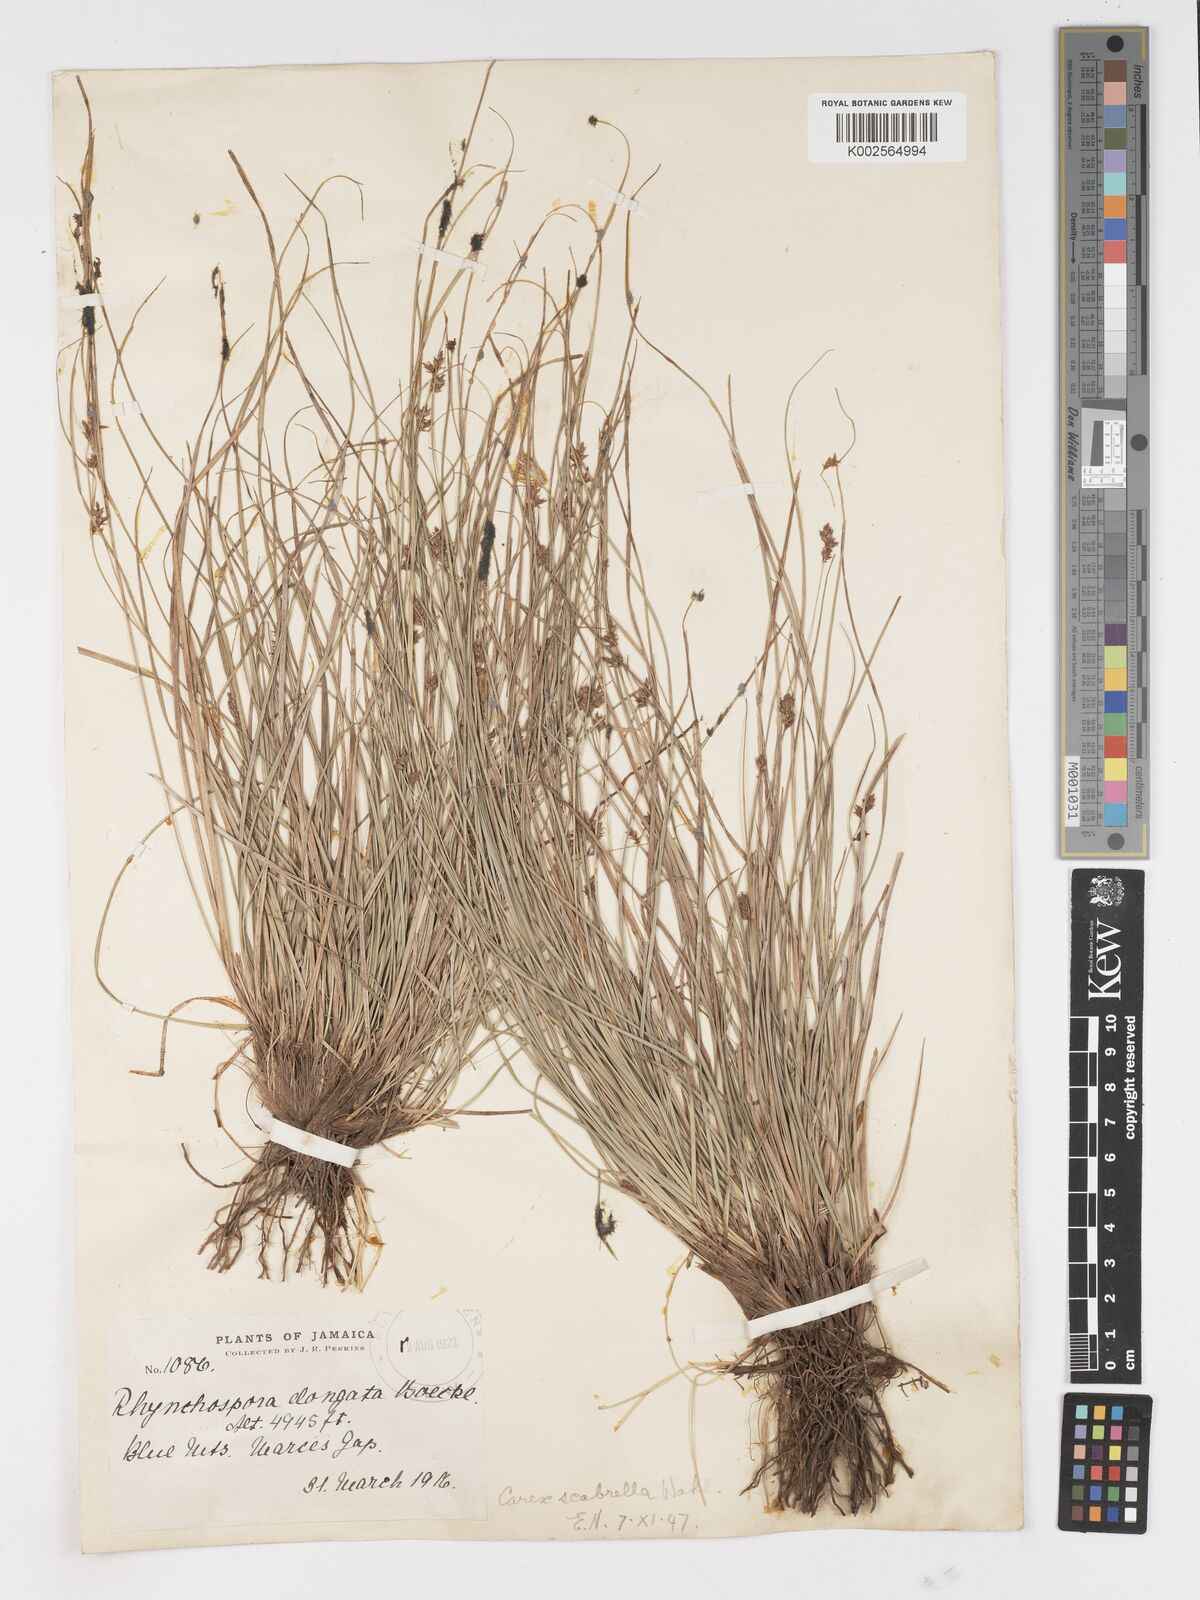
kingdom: Plantae
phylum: Tracheophyta
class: Liliopsida
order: Poales
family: Cyperaceae
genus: Carex
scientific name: Carex
